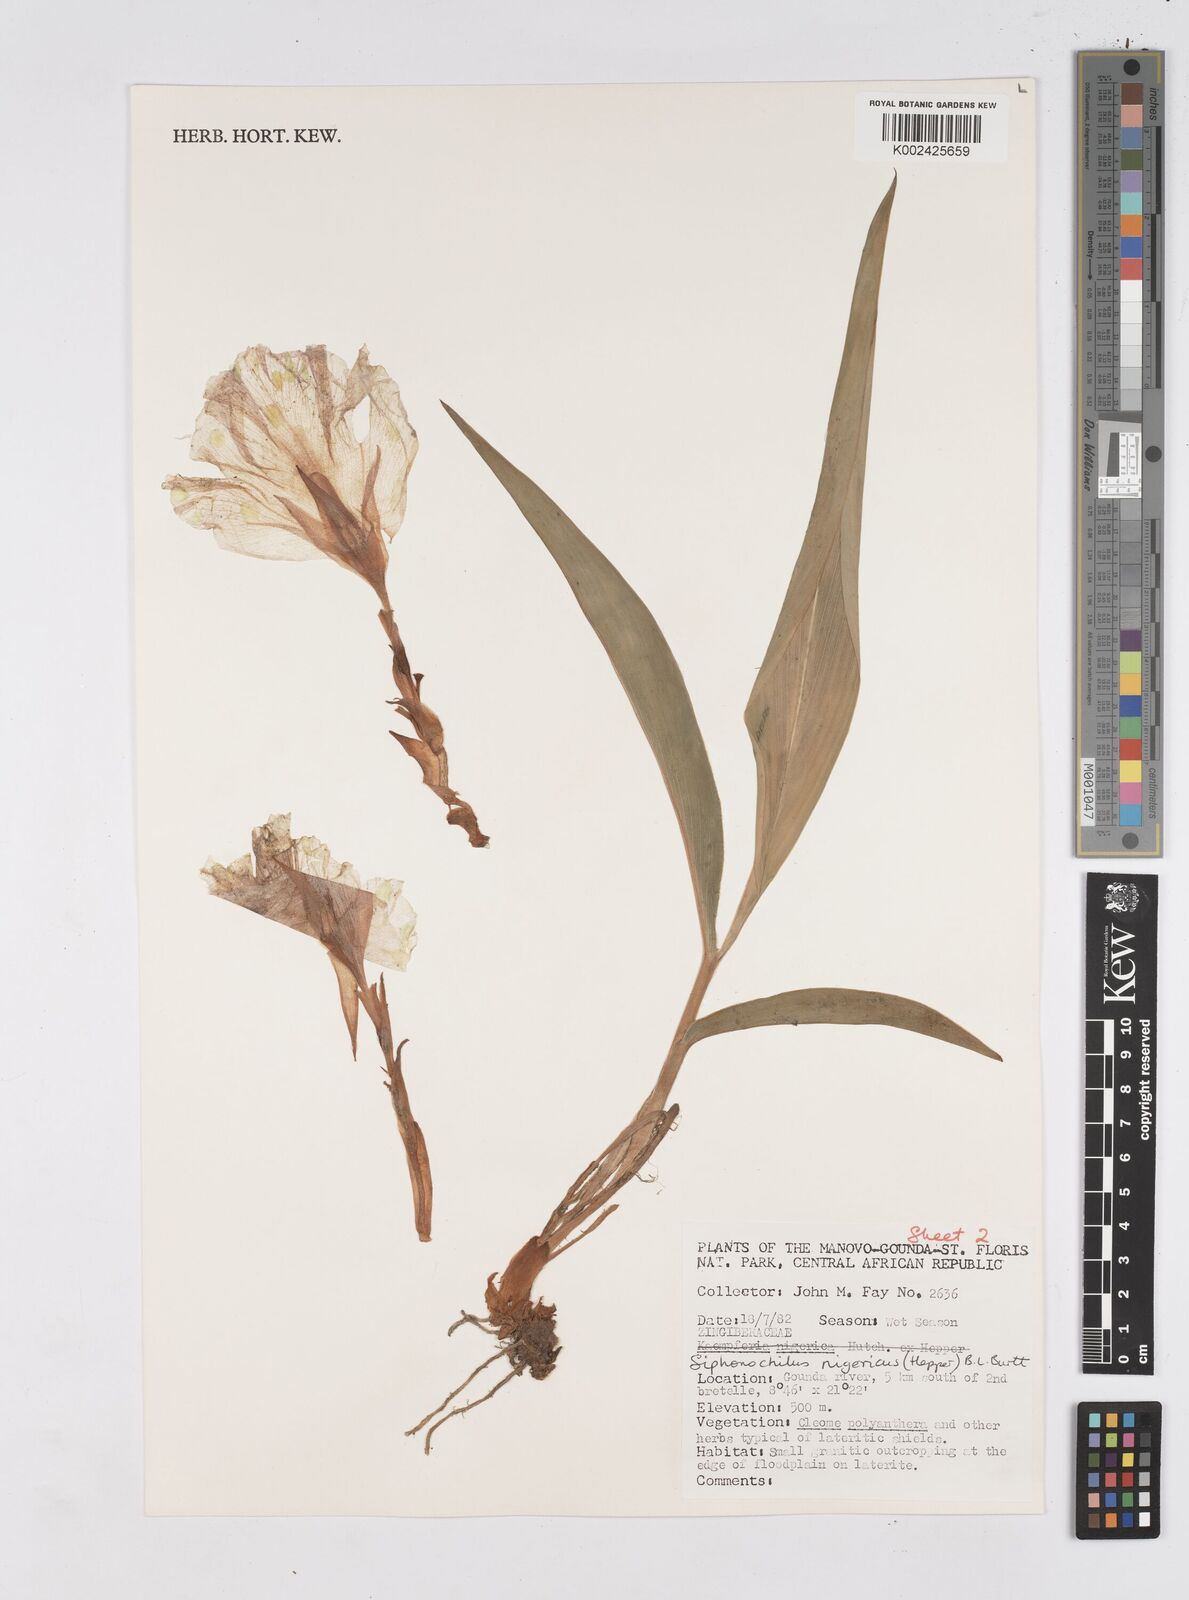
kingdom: Plantae
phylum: Tracheophyta
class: Liliopsida
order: Zingiberales
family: Zingiberaceae
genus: Siphonochilus
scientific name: Siphonochilus nigericus
